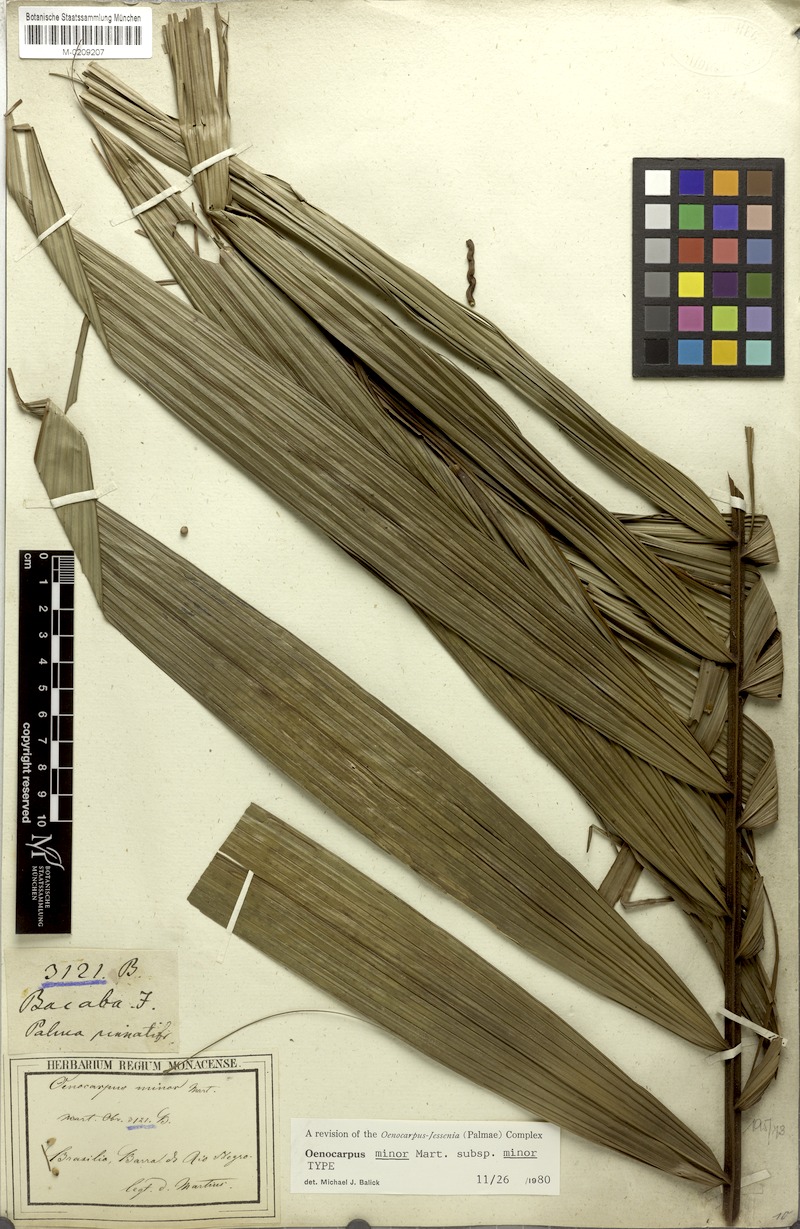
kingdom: Plantae
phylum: Tracheophyta
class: Liliopsida
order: Arecales
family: Arecaceae
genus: Oenocarpus
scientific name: Oenocarpus minor
